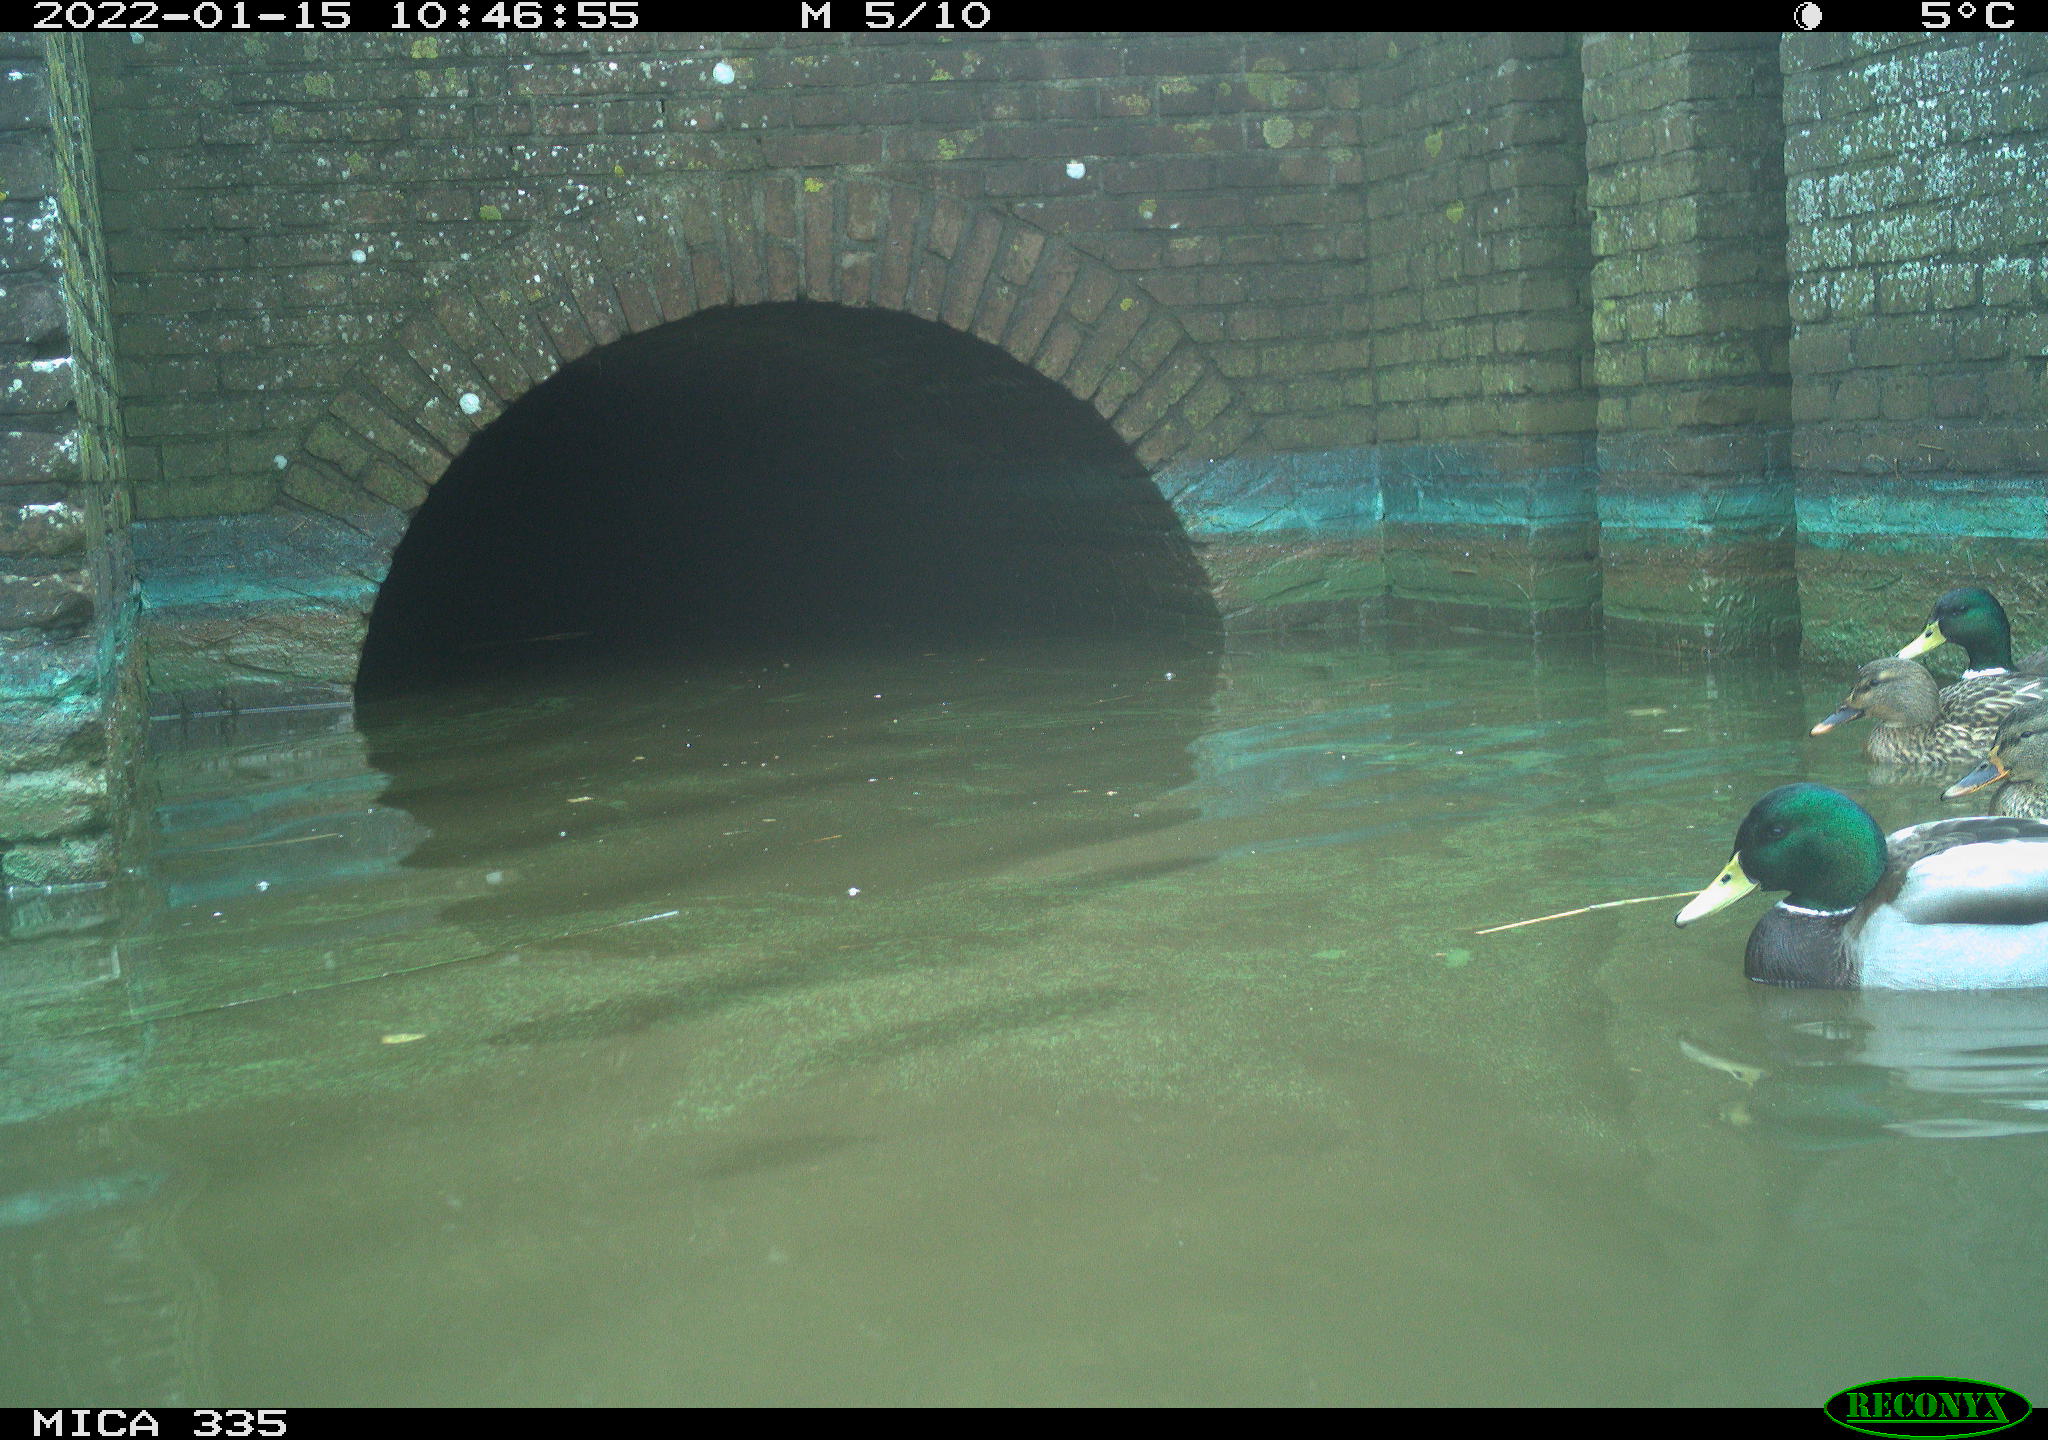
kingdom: Animalia
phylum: Chordata
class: Aves
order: Anseriformes
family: Anatidae
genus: Anas
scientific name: Anas platyrhynchos
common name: Mallard
